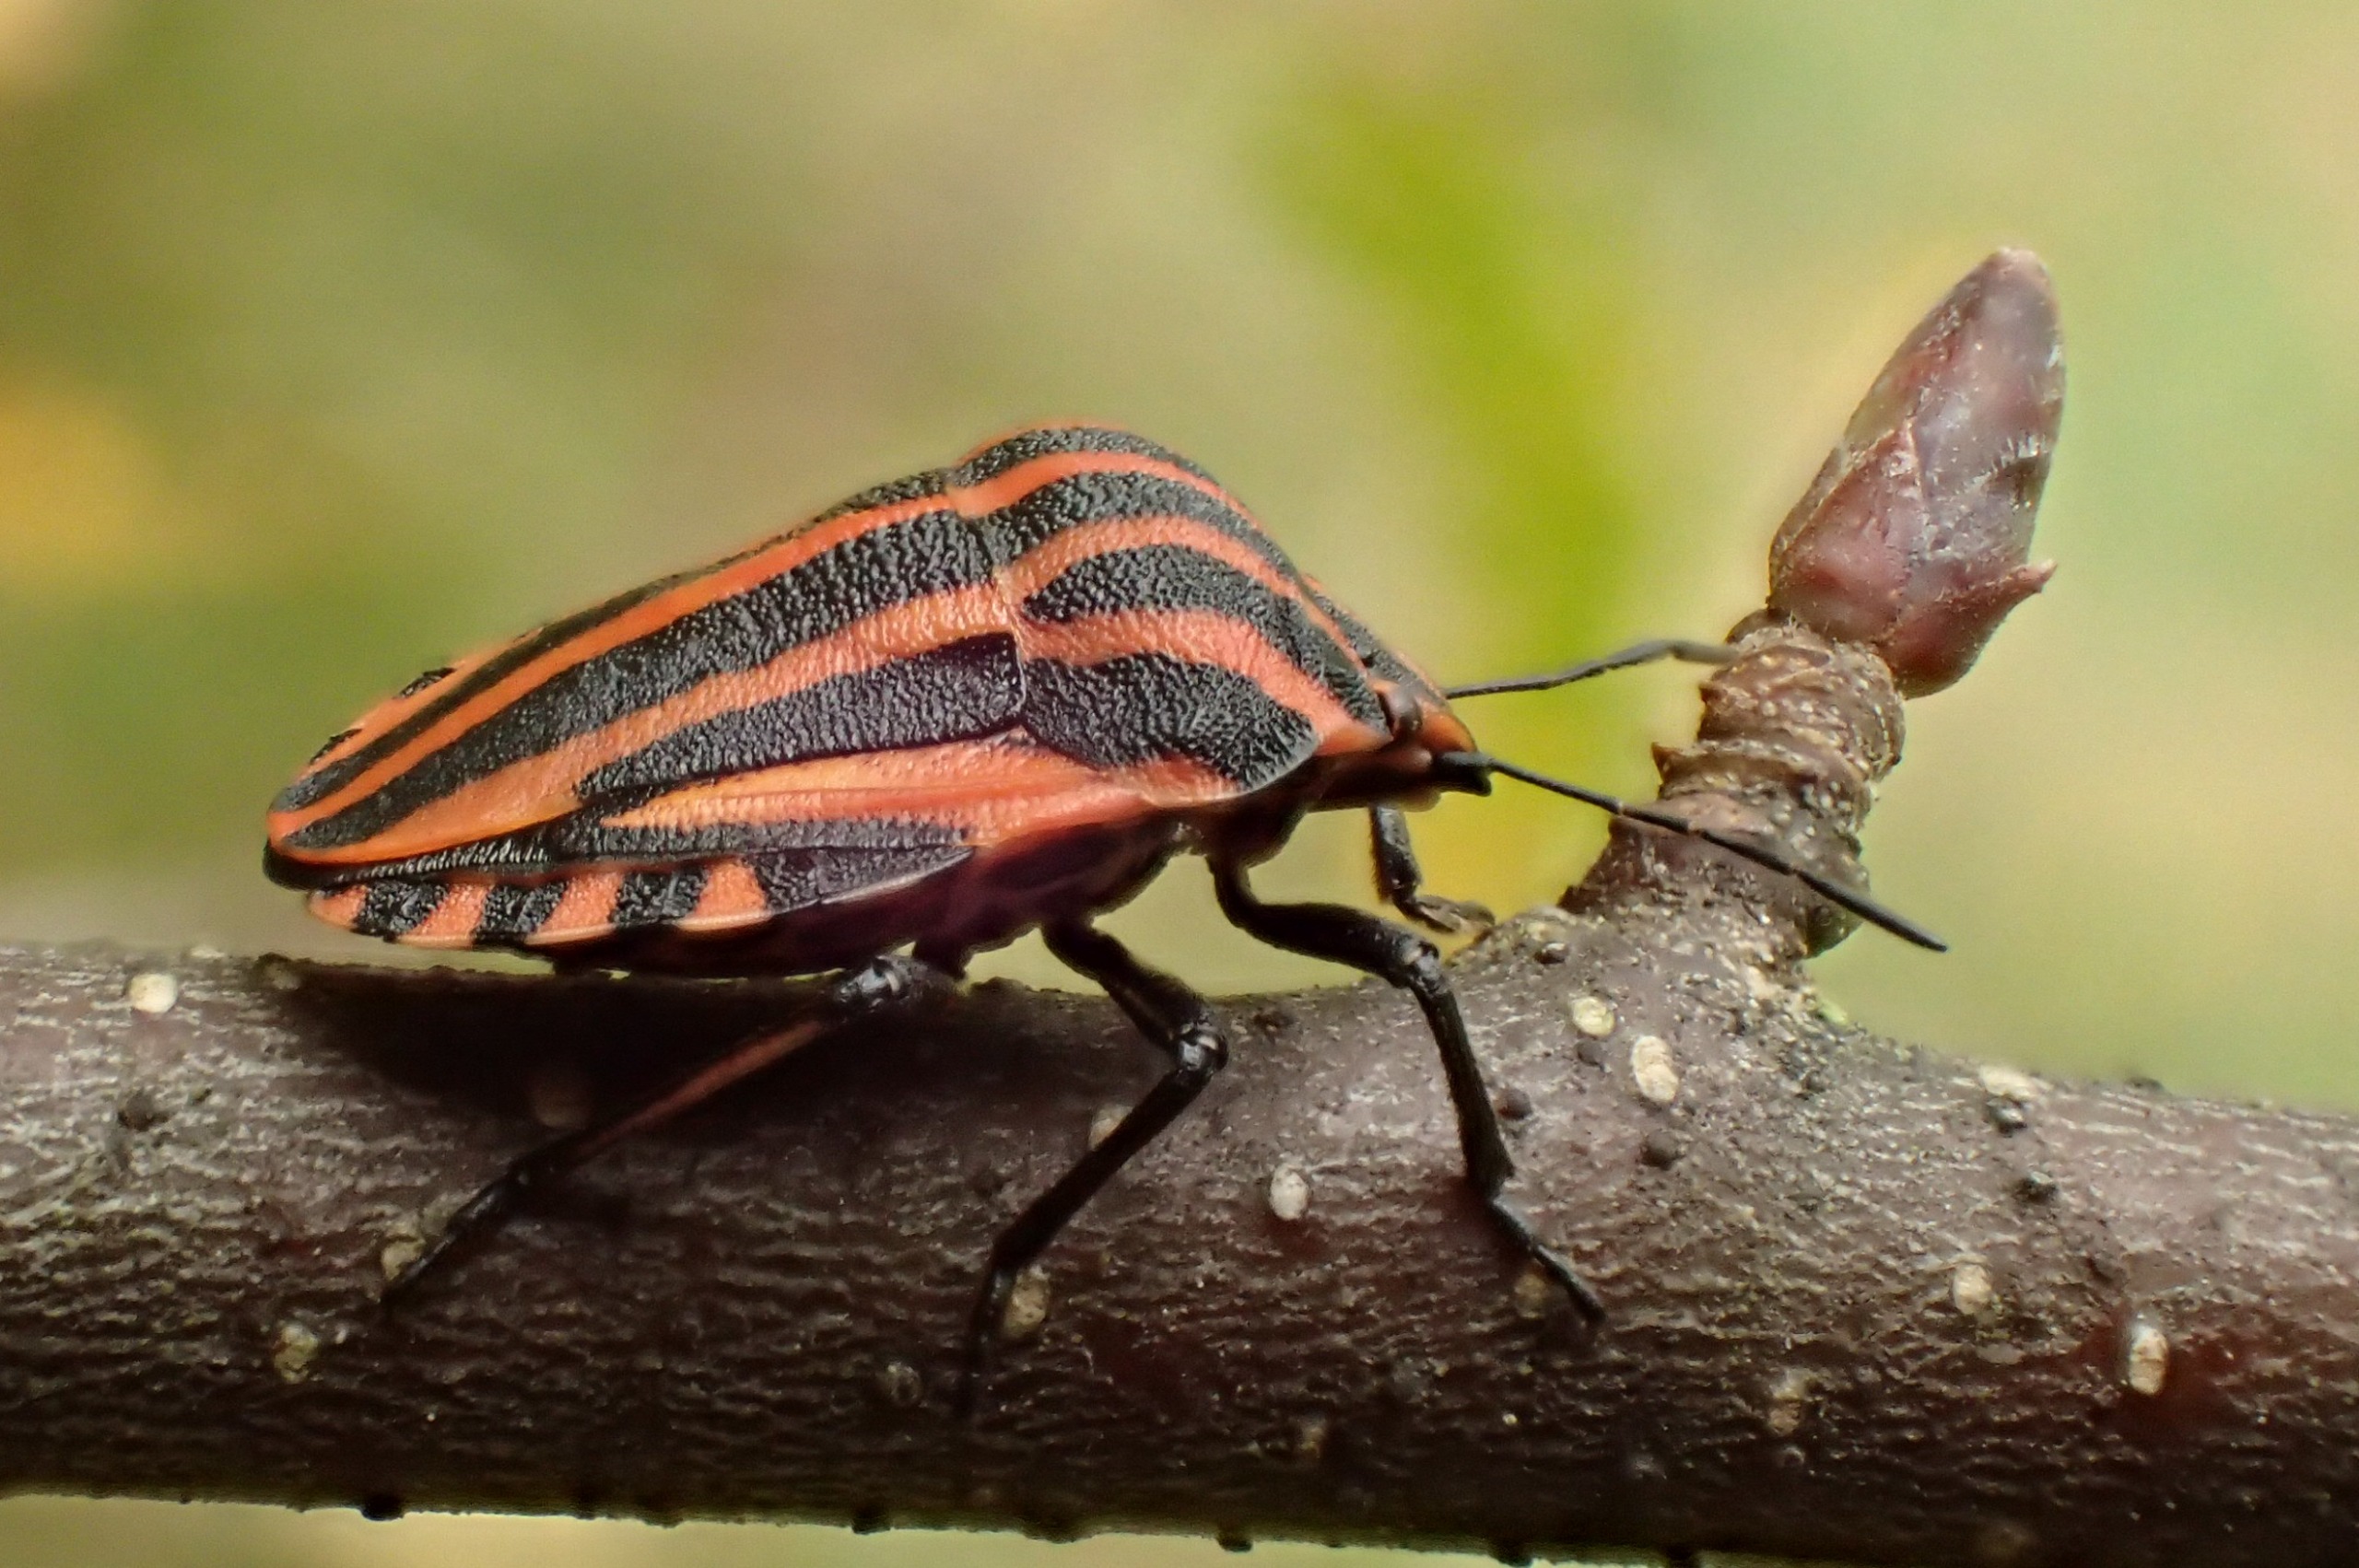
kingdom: Animalia
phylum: Arthropoda
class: Insecta
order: Hemiptera
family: Pentatomidae
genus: Graphosoma
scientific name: Graphosoma italicum
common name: Stribetæge
